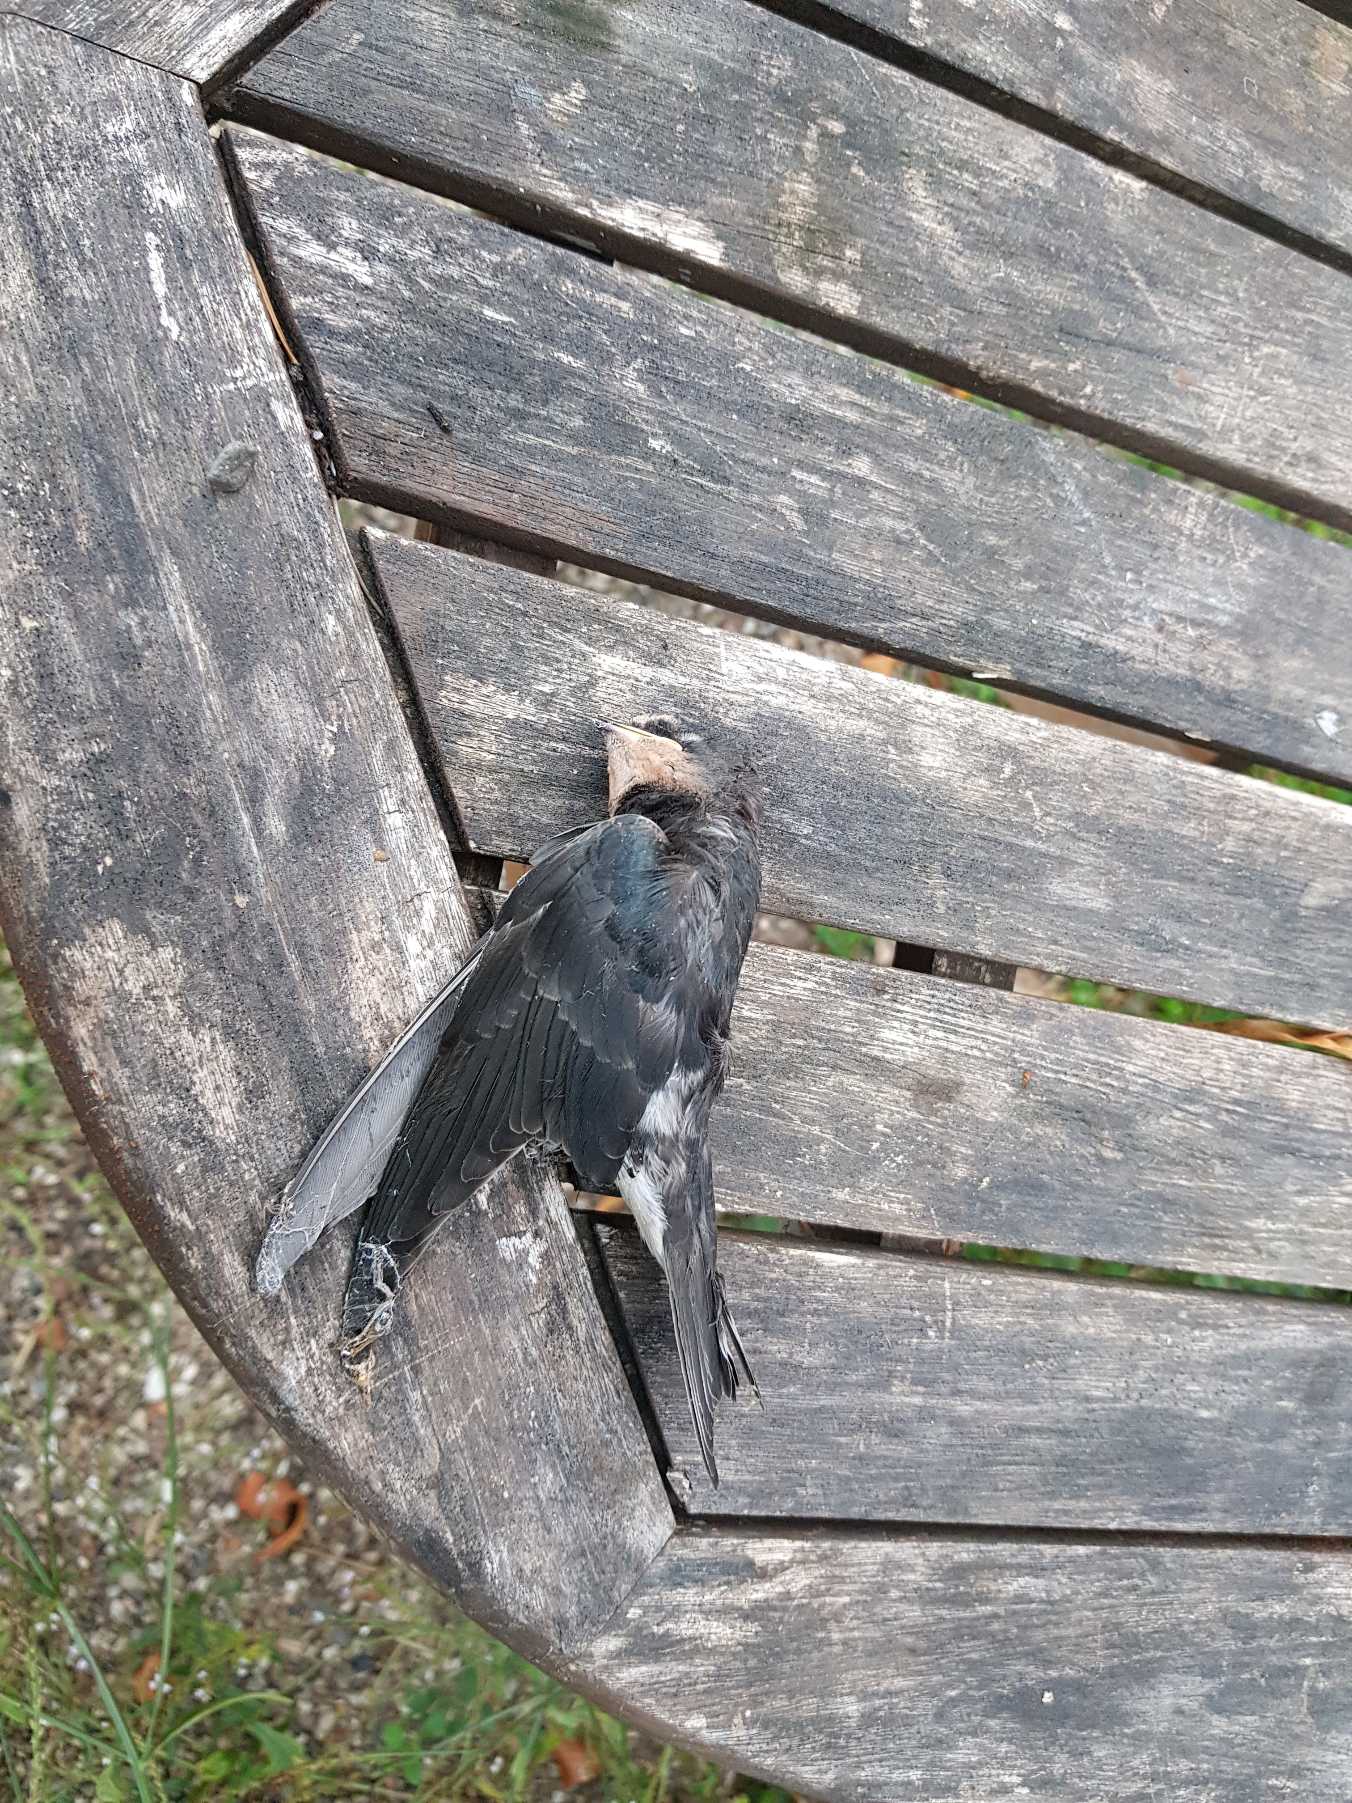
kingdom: Animalia
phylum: Chordata
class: Aves
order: Passeriformes
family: Hirundinidae
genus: Hirundo
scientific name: Hirundo rustica
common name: Landsvale
